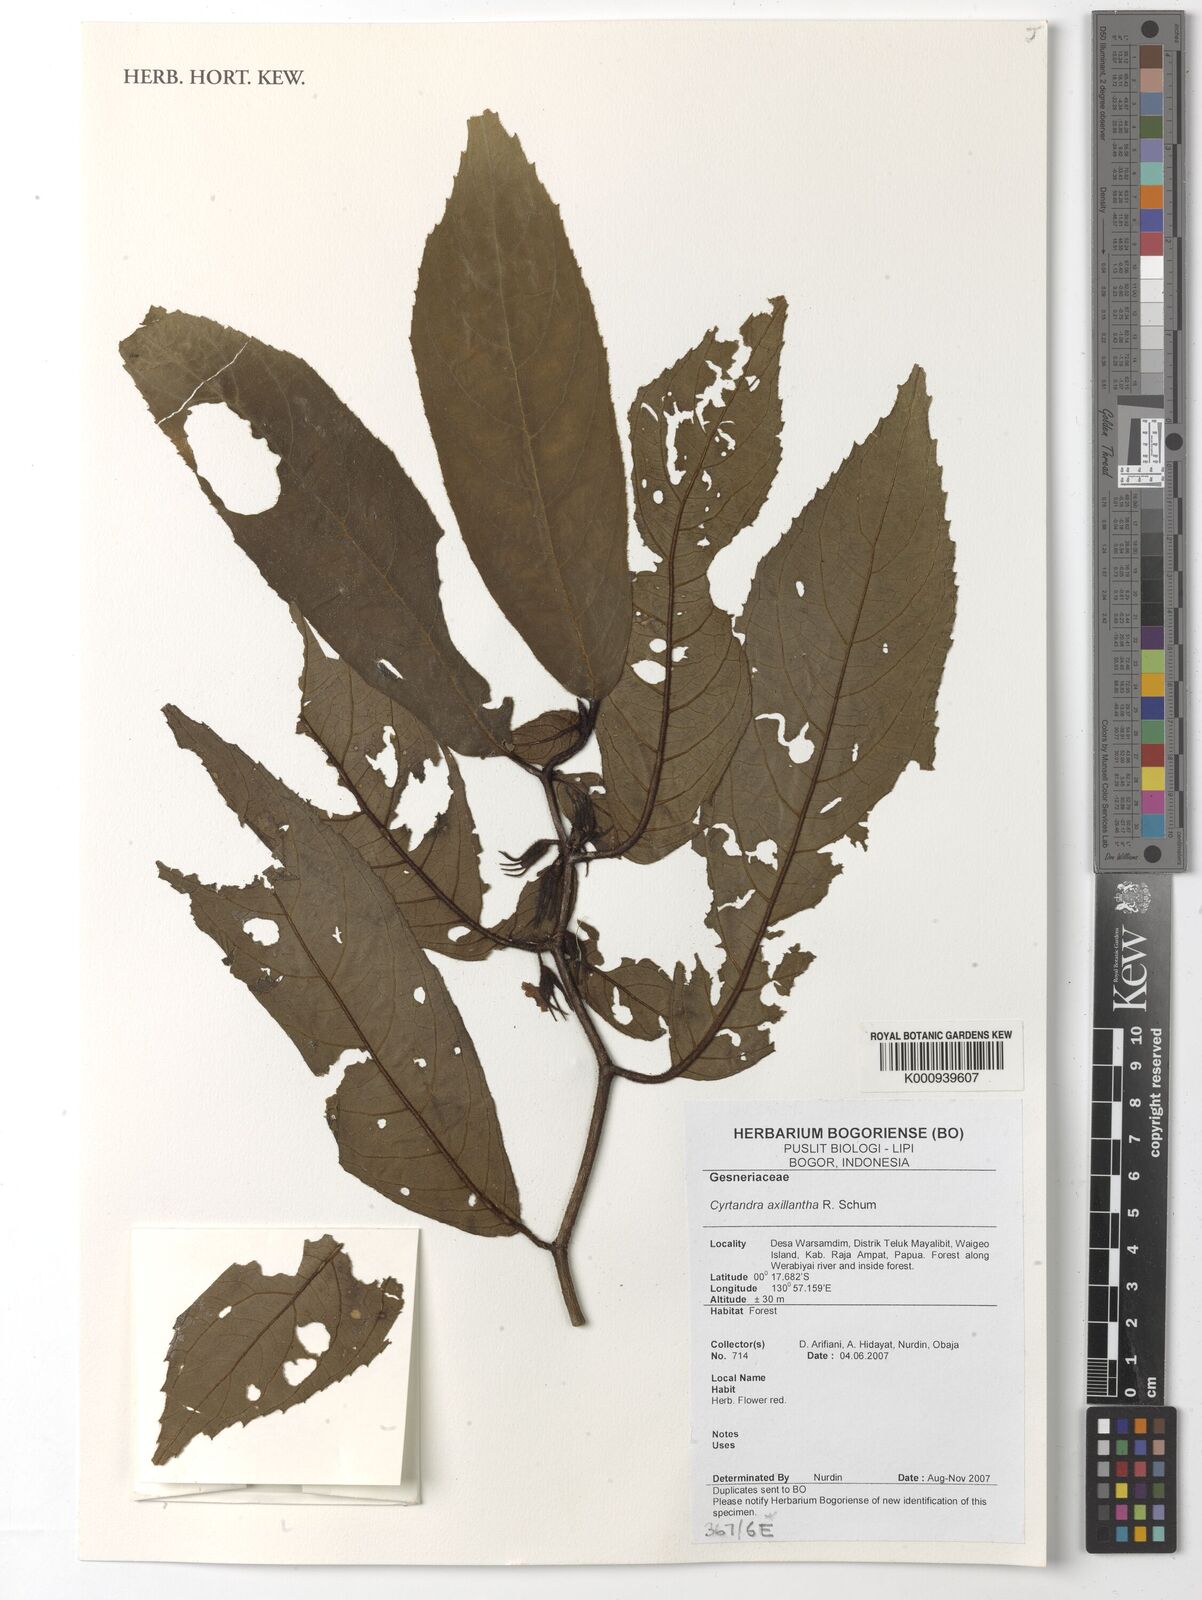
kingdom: Plantae
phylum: Tracheophyta
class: Magnoliopsida
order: Lamiales
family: Gesneriaceae
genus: Cyrtandra
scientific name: Cyrtandra axillantha
